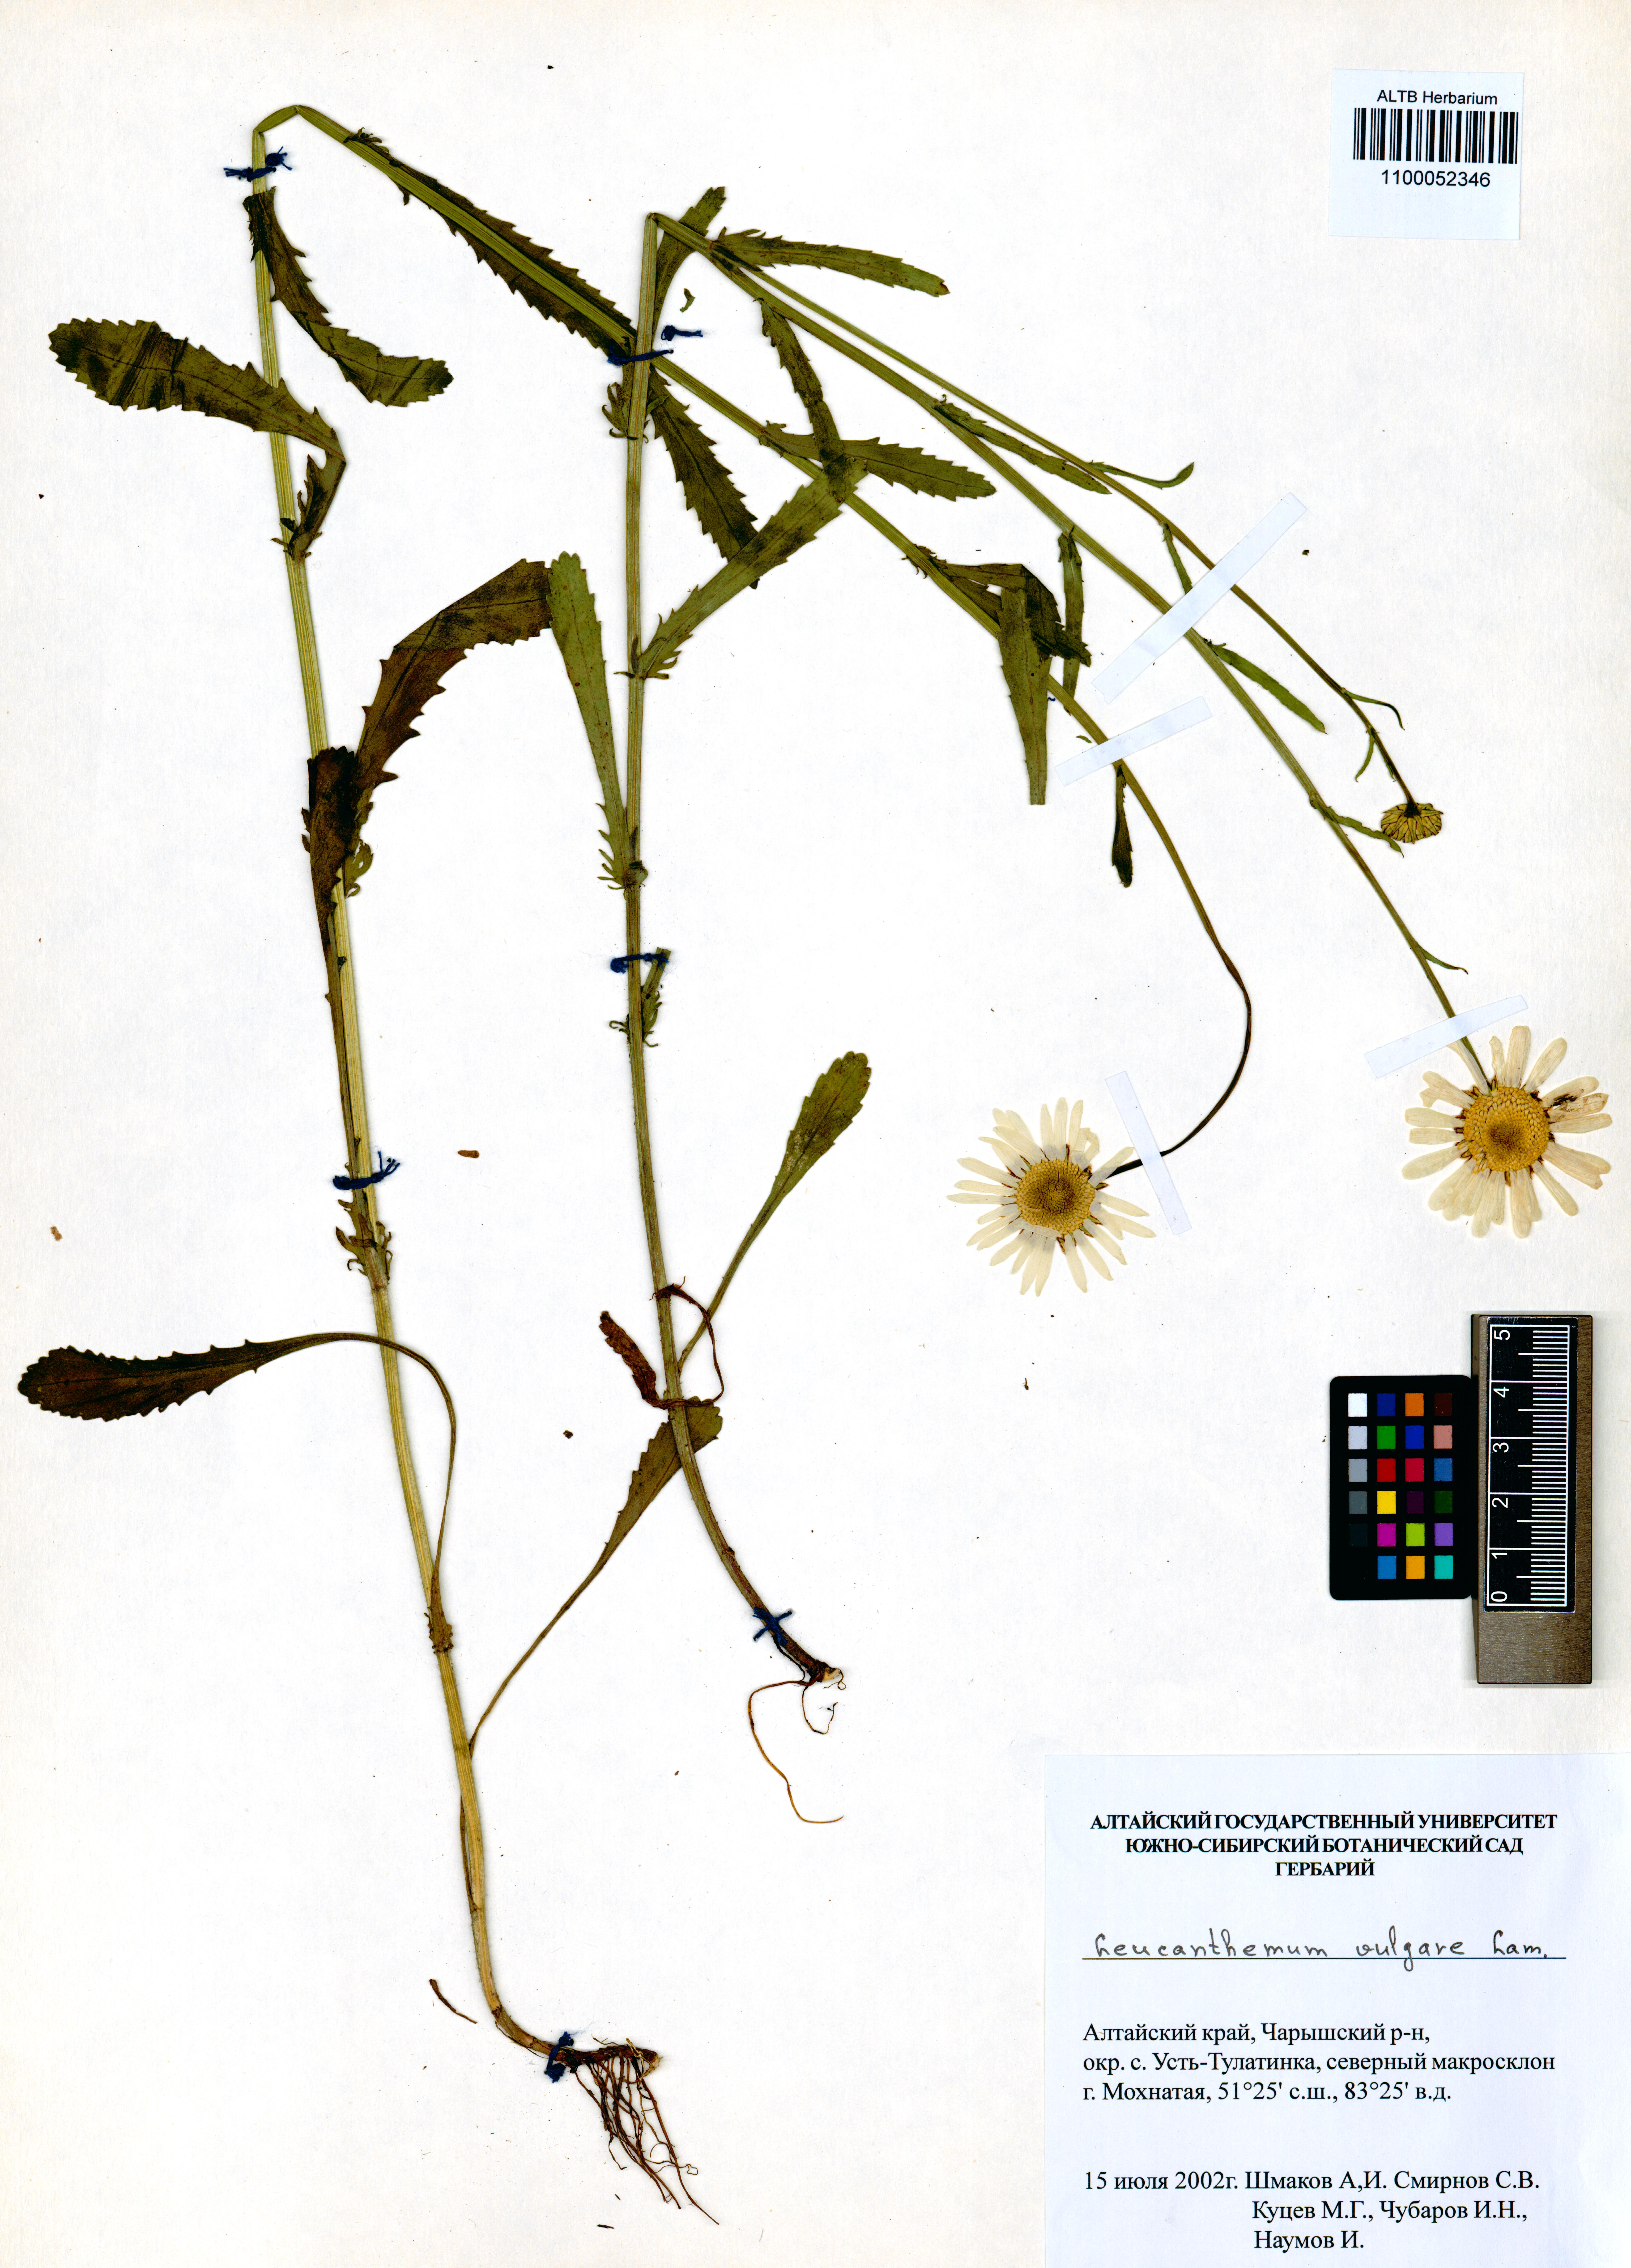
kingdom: Plantae
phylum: Tracheophyta
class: Magnoliopsida
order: Asterales
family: Asteraceae
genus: Leucanthemum
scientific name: Leucanthemum vulgare
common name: Oxeye daisy
